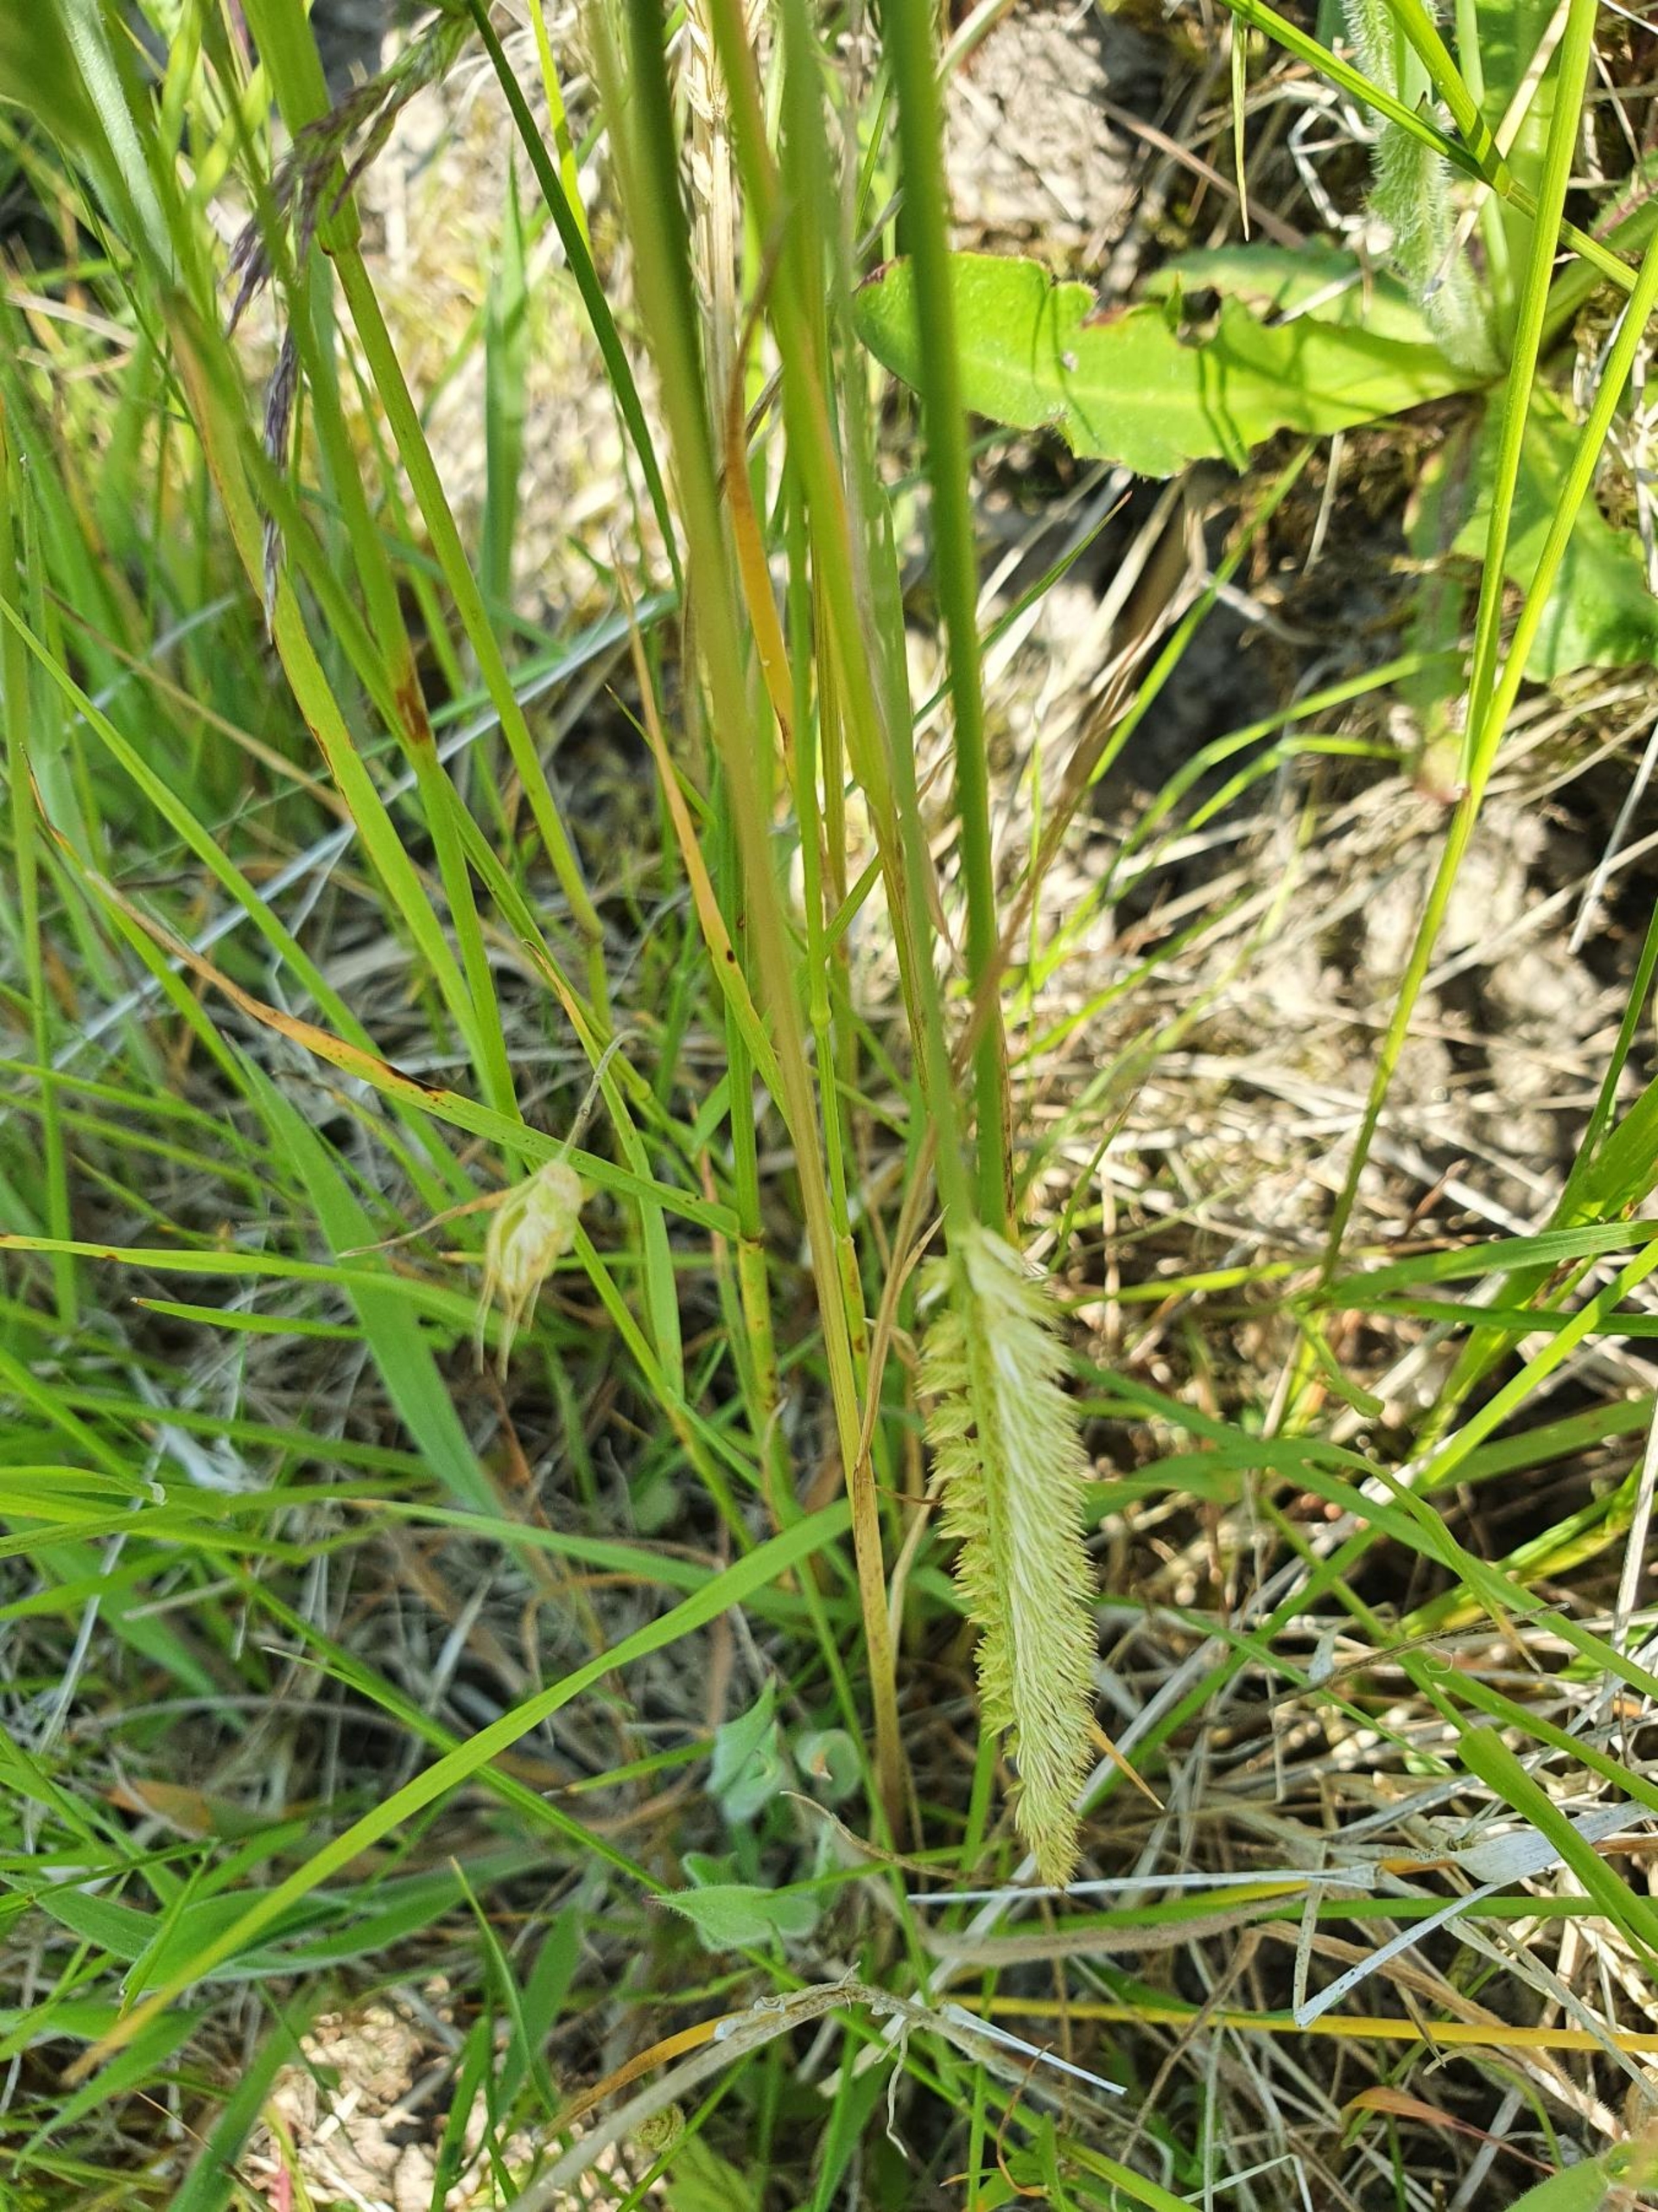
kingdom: Plantae
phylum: Tracheophyta
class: Liliopsida
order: Poales
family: Poaceae
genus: Cynosurus
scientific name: Cynosurus cristatus
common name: Kamgræs
